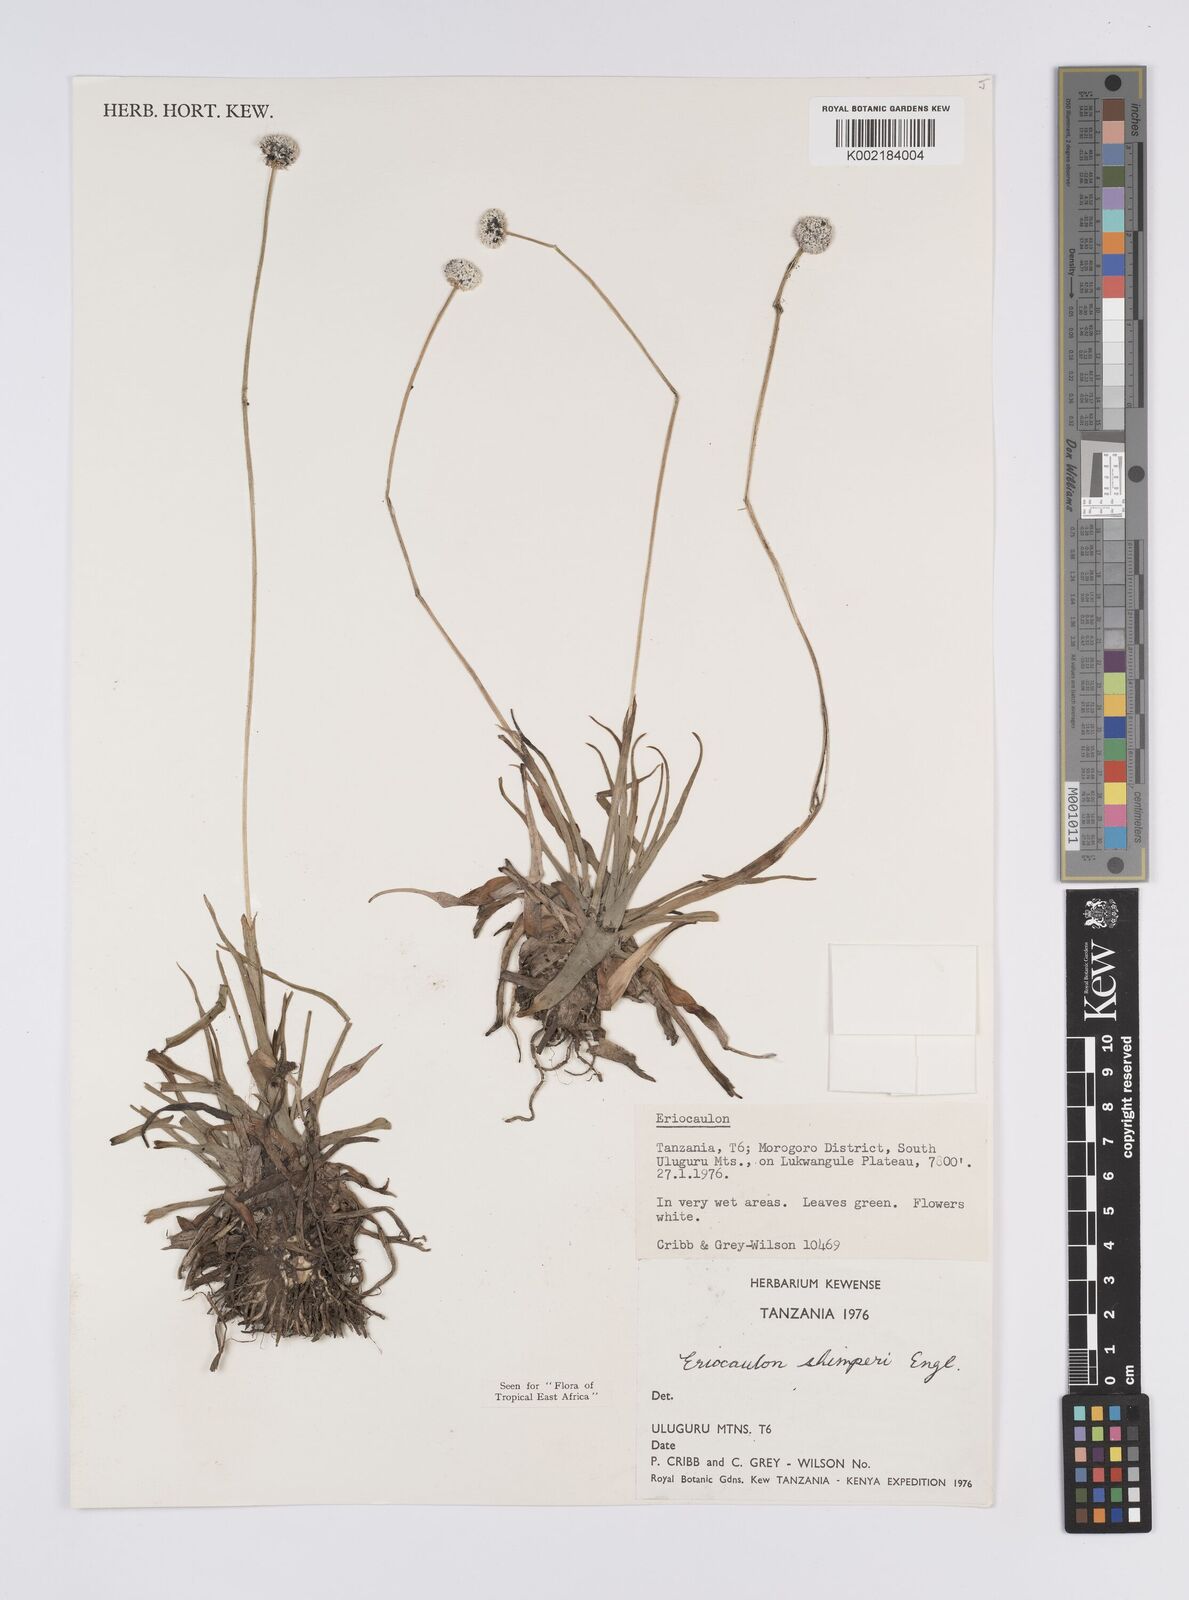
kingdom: Plantae
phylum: Tracheophyta
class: Liliopsida
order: Poales
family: Eriocaulaceae
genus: Eriocaulon
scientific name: Eriocaulon mesanthemoides
